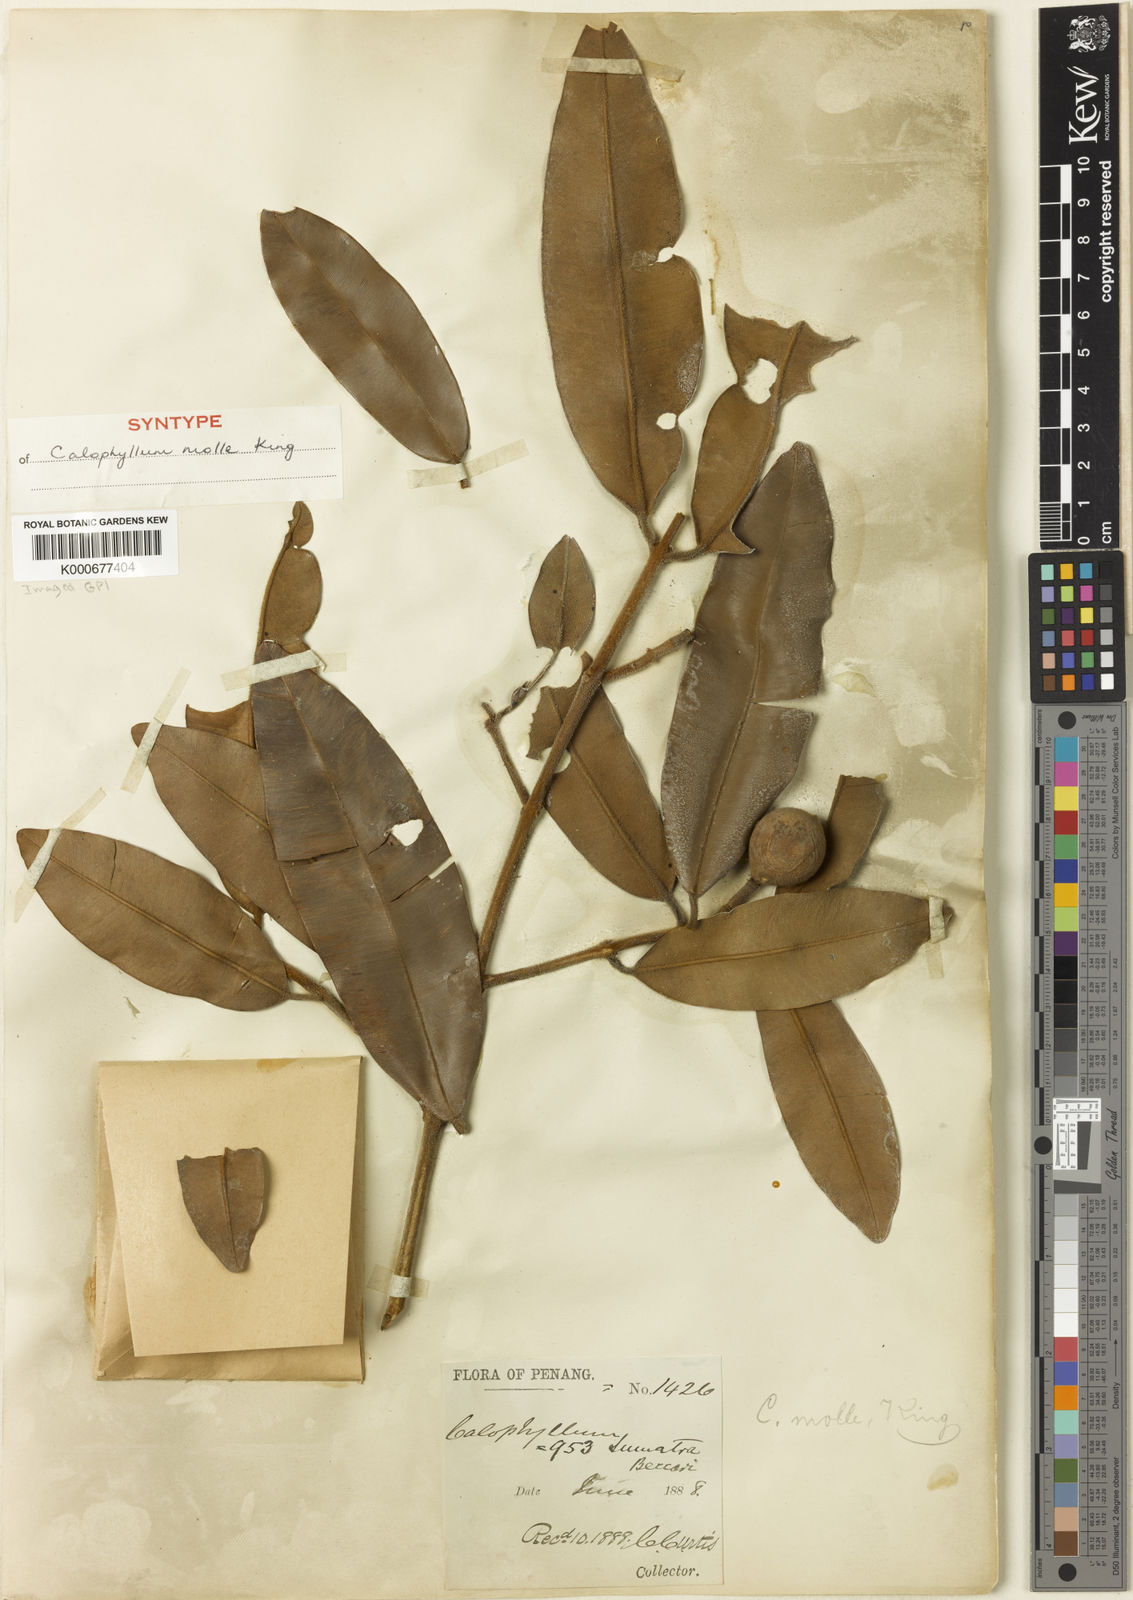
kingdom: Plantae
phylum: Tracheophyta
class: Magnoliopsida
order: Malpighiales
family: Calophyllaceae
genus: Calophyllum
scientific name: Calophyllum molle
